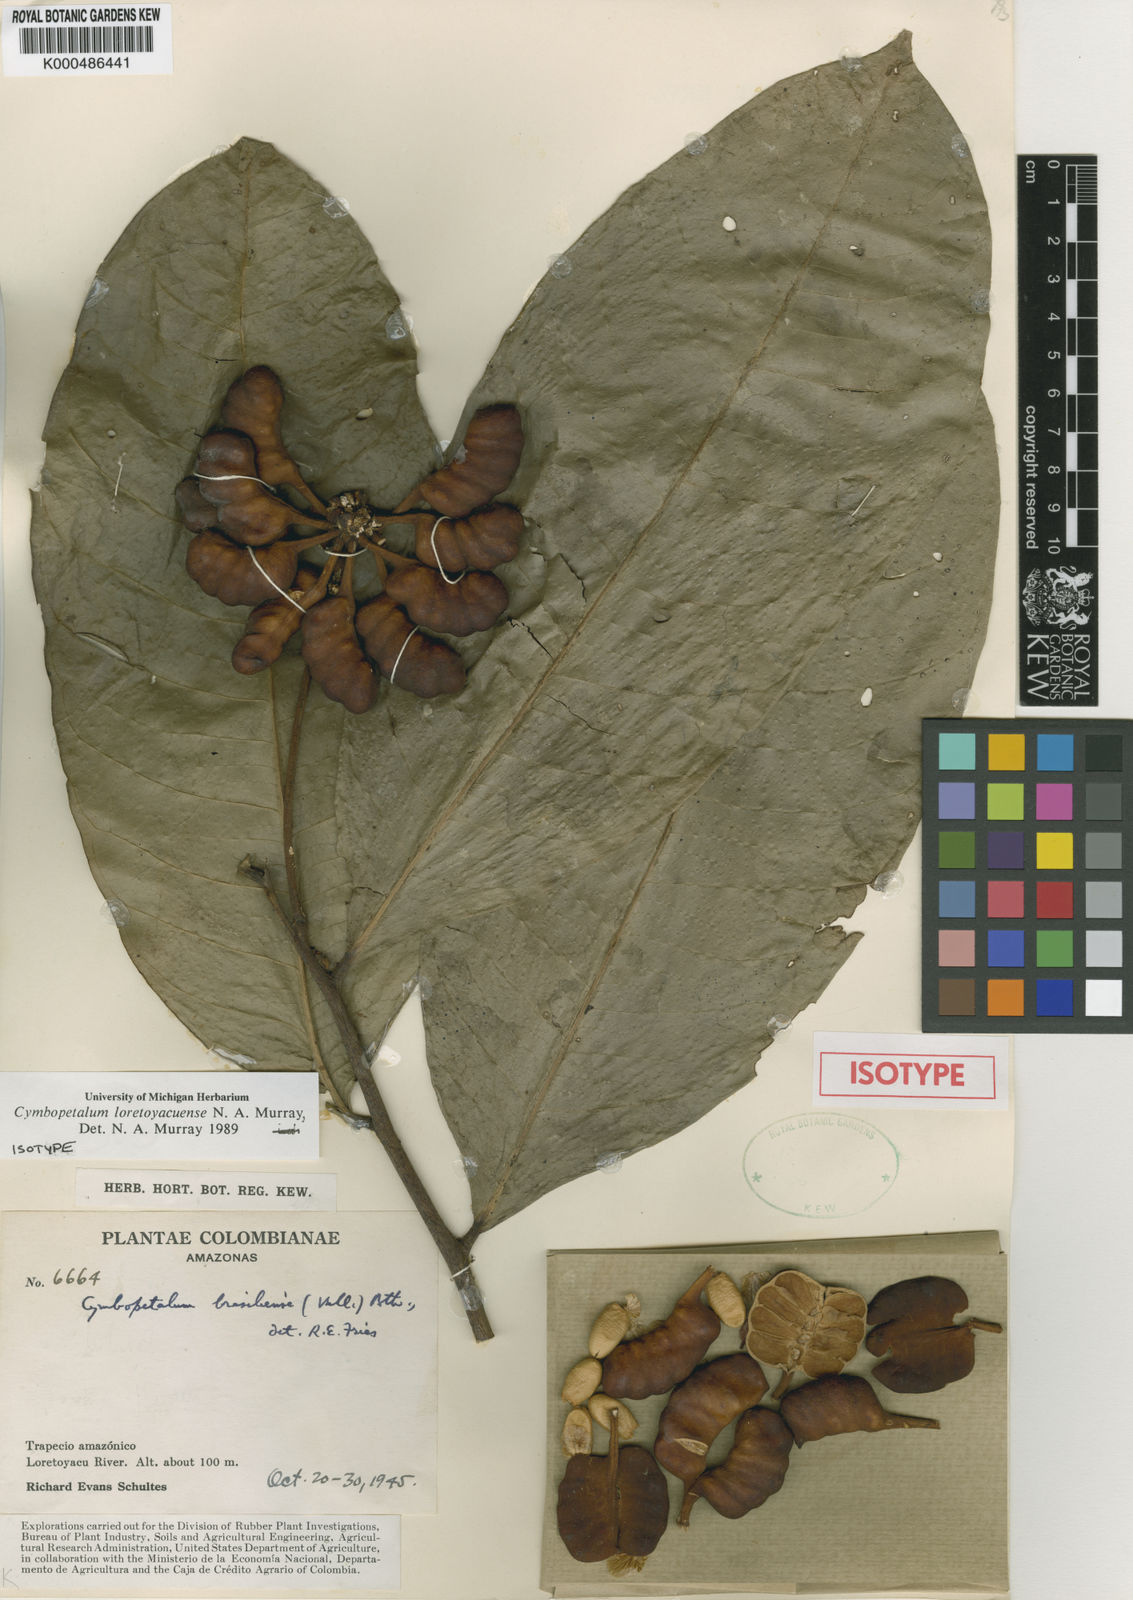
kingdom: Plantae
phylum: Tracheophyta
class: Magnoliopsida
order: Magnoliales
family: Annonaceae
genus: Cymbopetalum
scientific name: Cymbopetalum brasiliense
